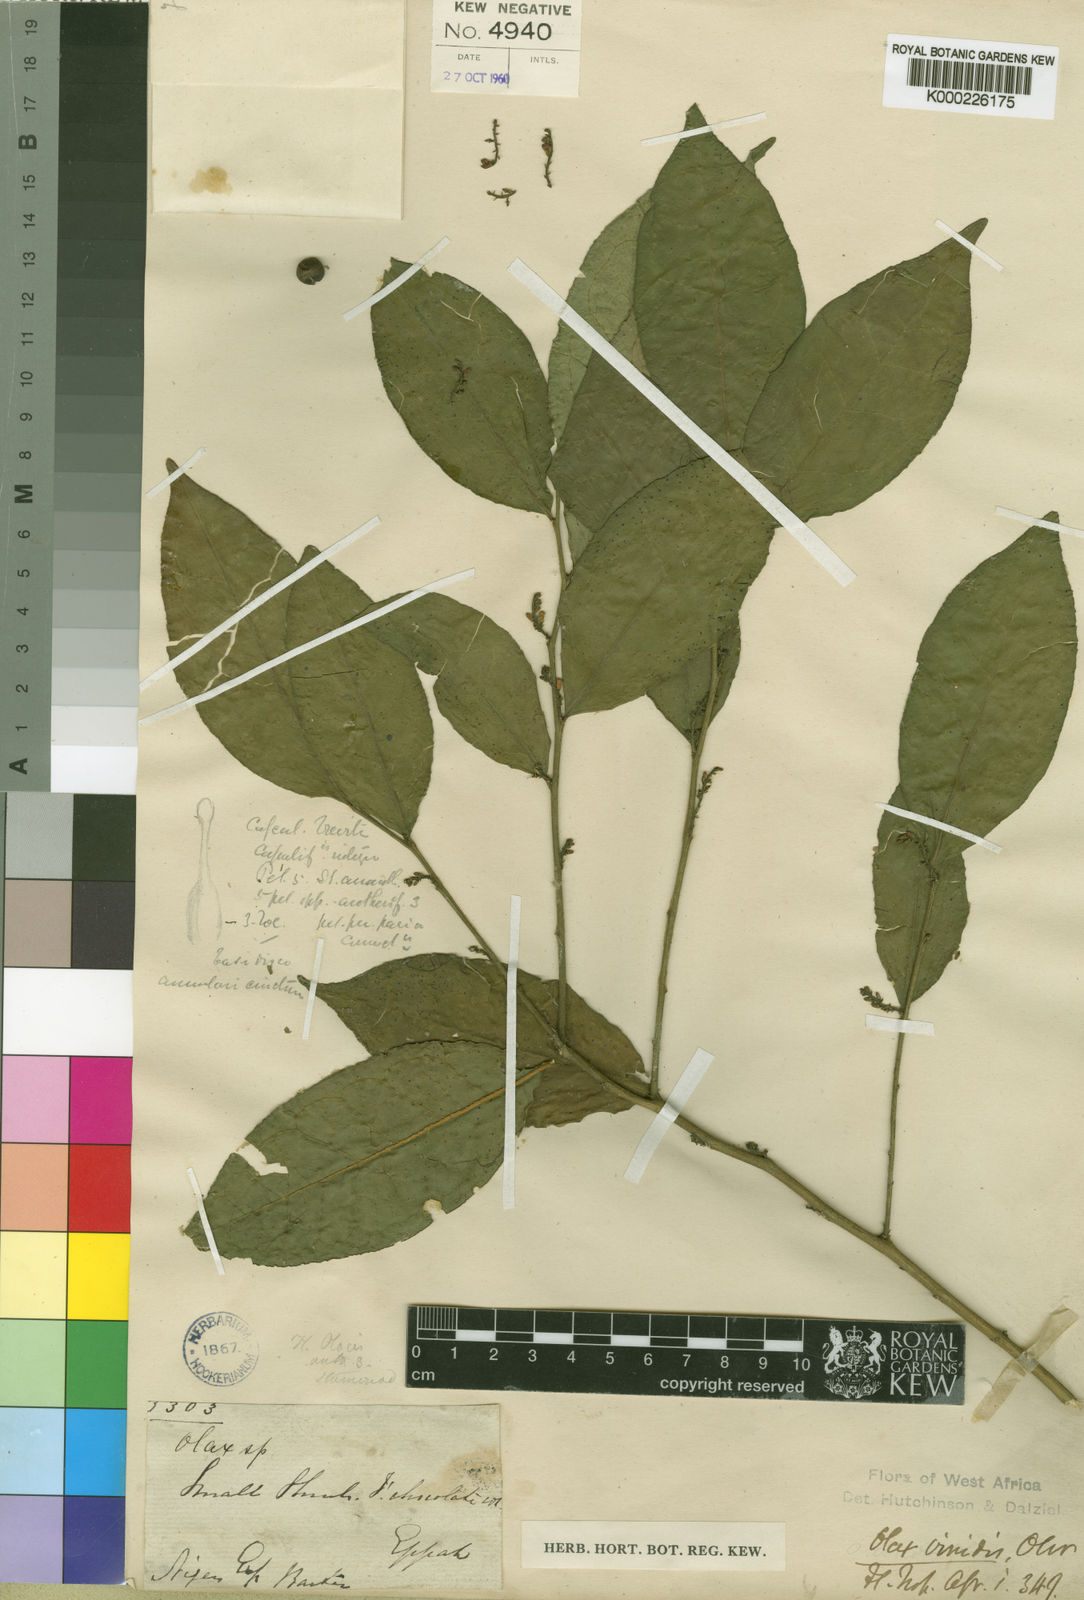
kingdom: Plantae
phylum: Tracheophyta
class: Magnoliopsida
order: Santalales
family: Olacaceae
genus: Olax
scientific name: Olax gambecola
